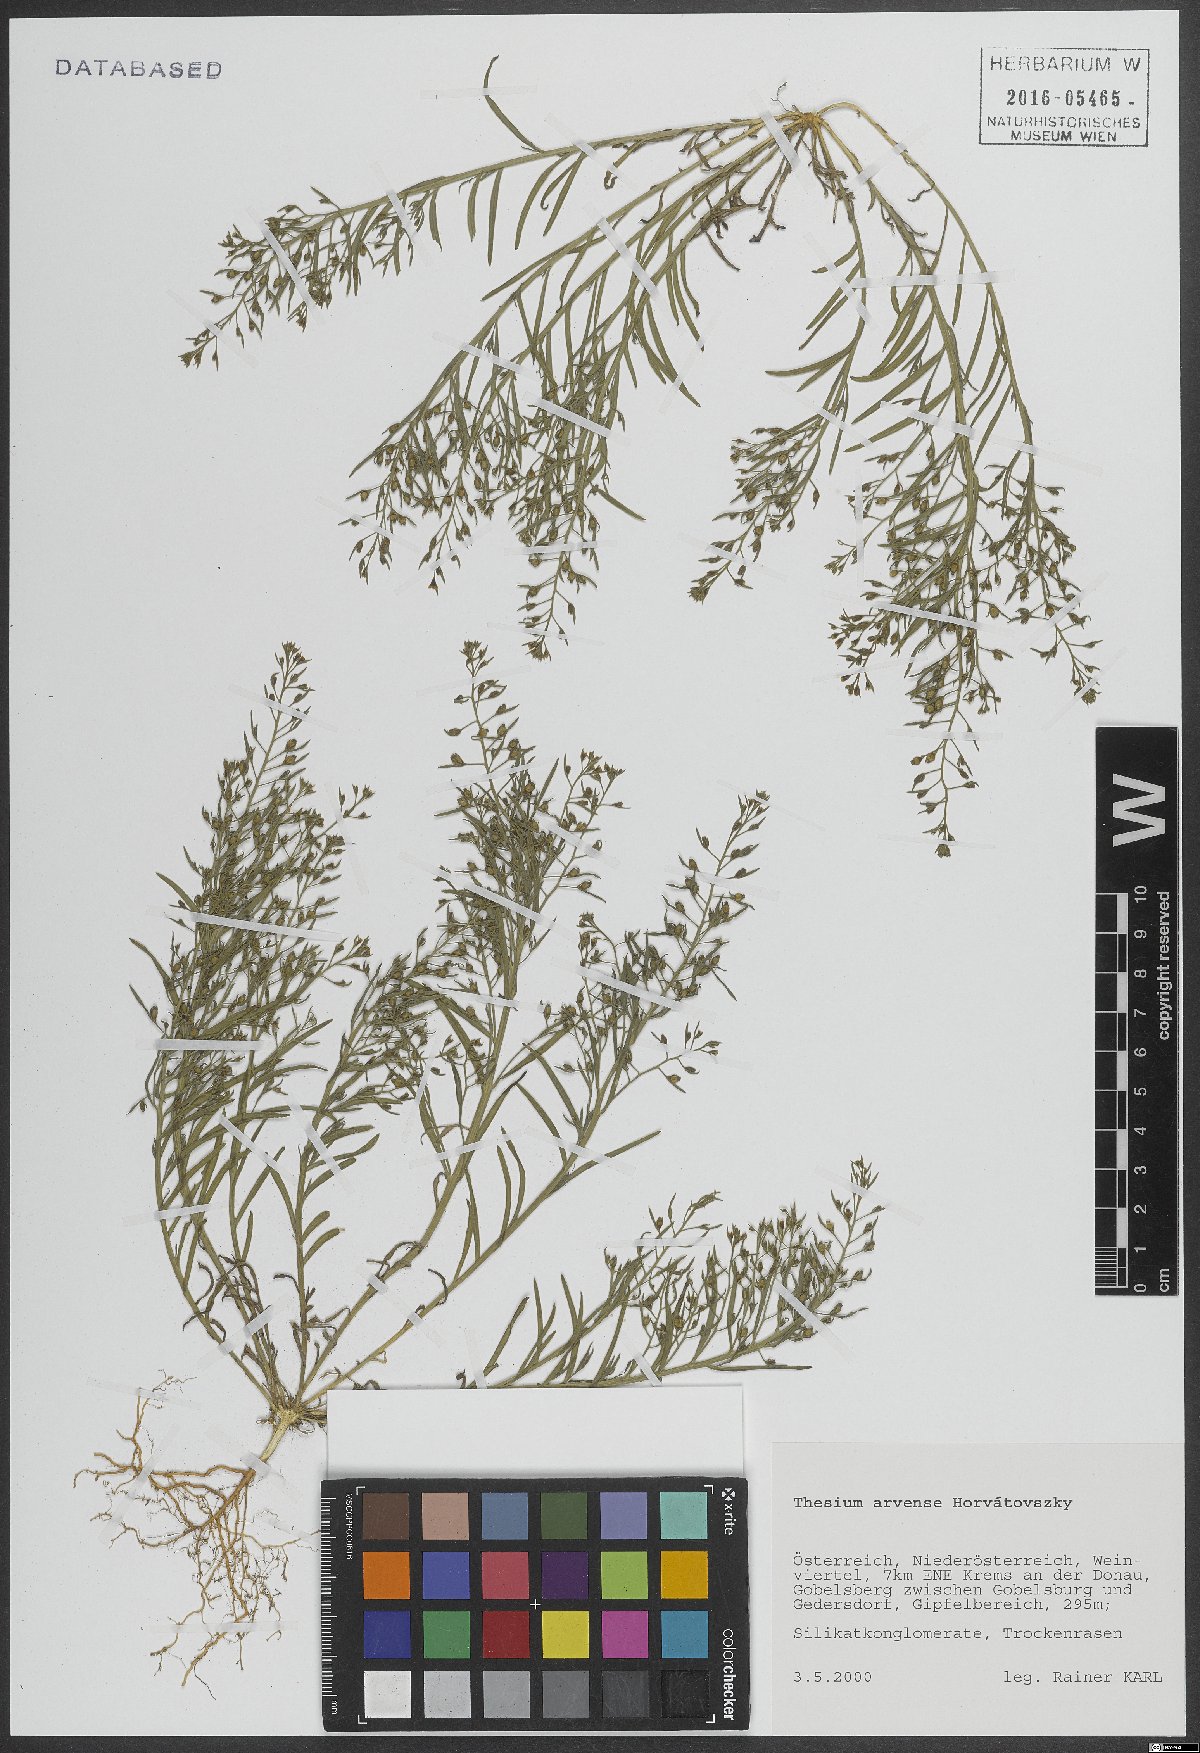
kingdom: Plantae
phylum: Tracheophyta
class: Magnoliopsida
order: Santalales
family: Thesiaceae
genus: Thesium
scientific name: Thesium
